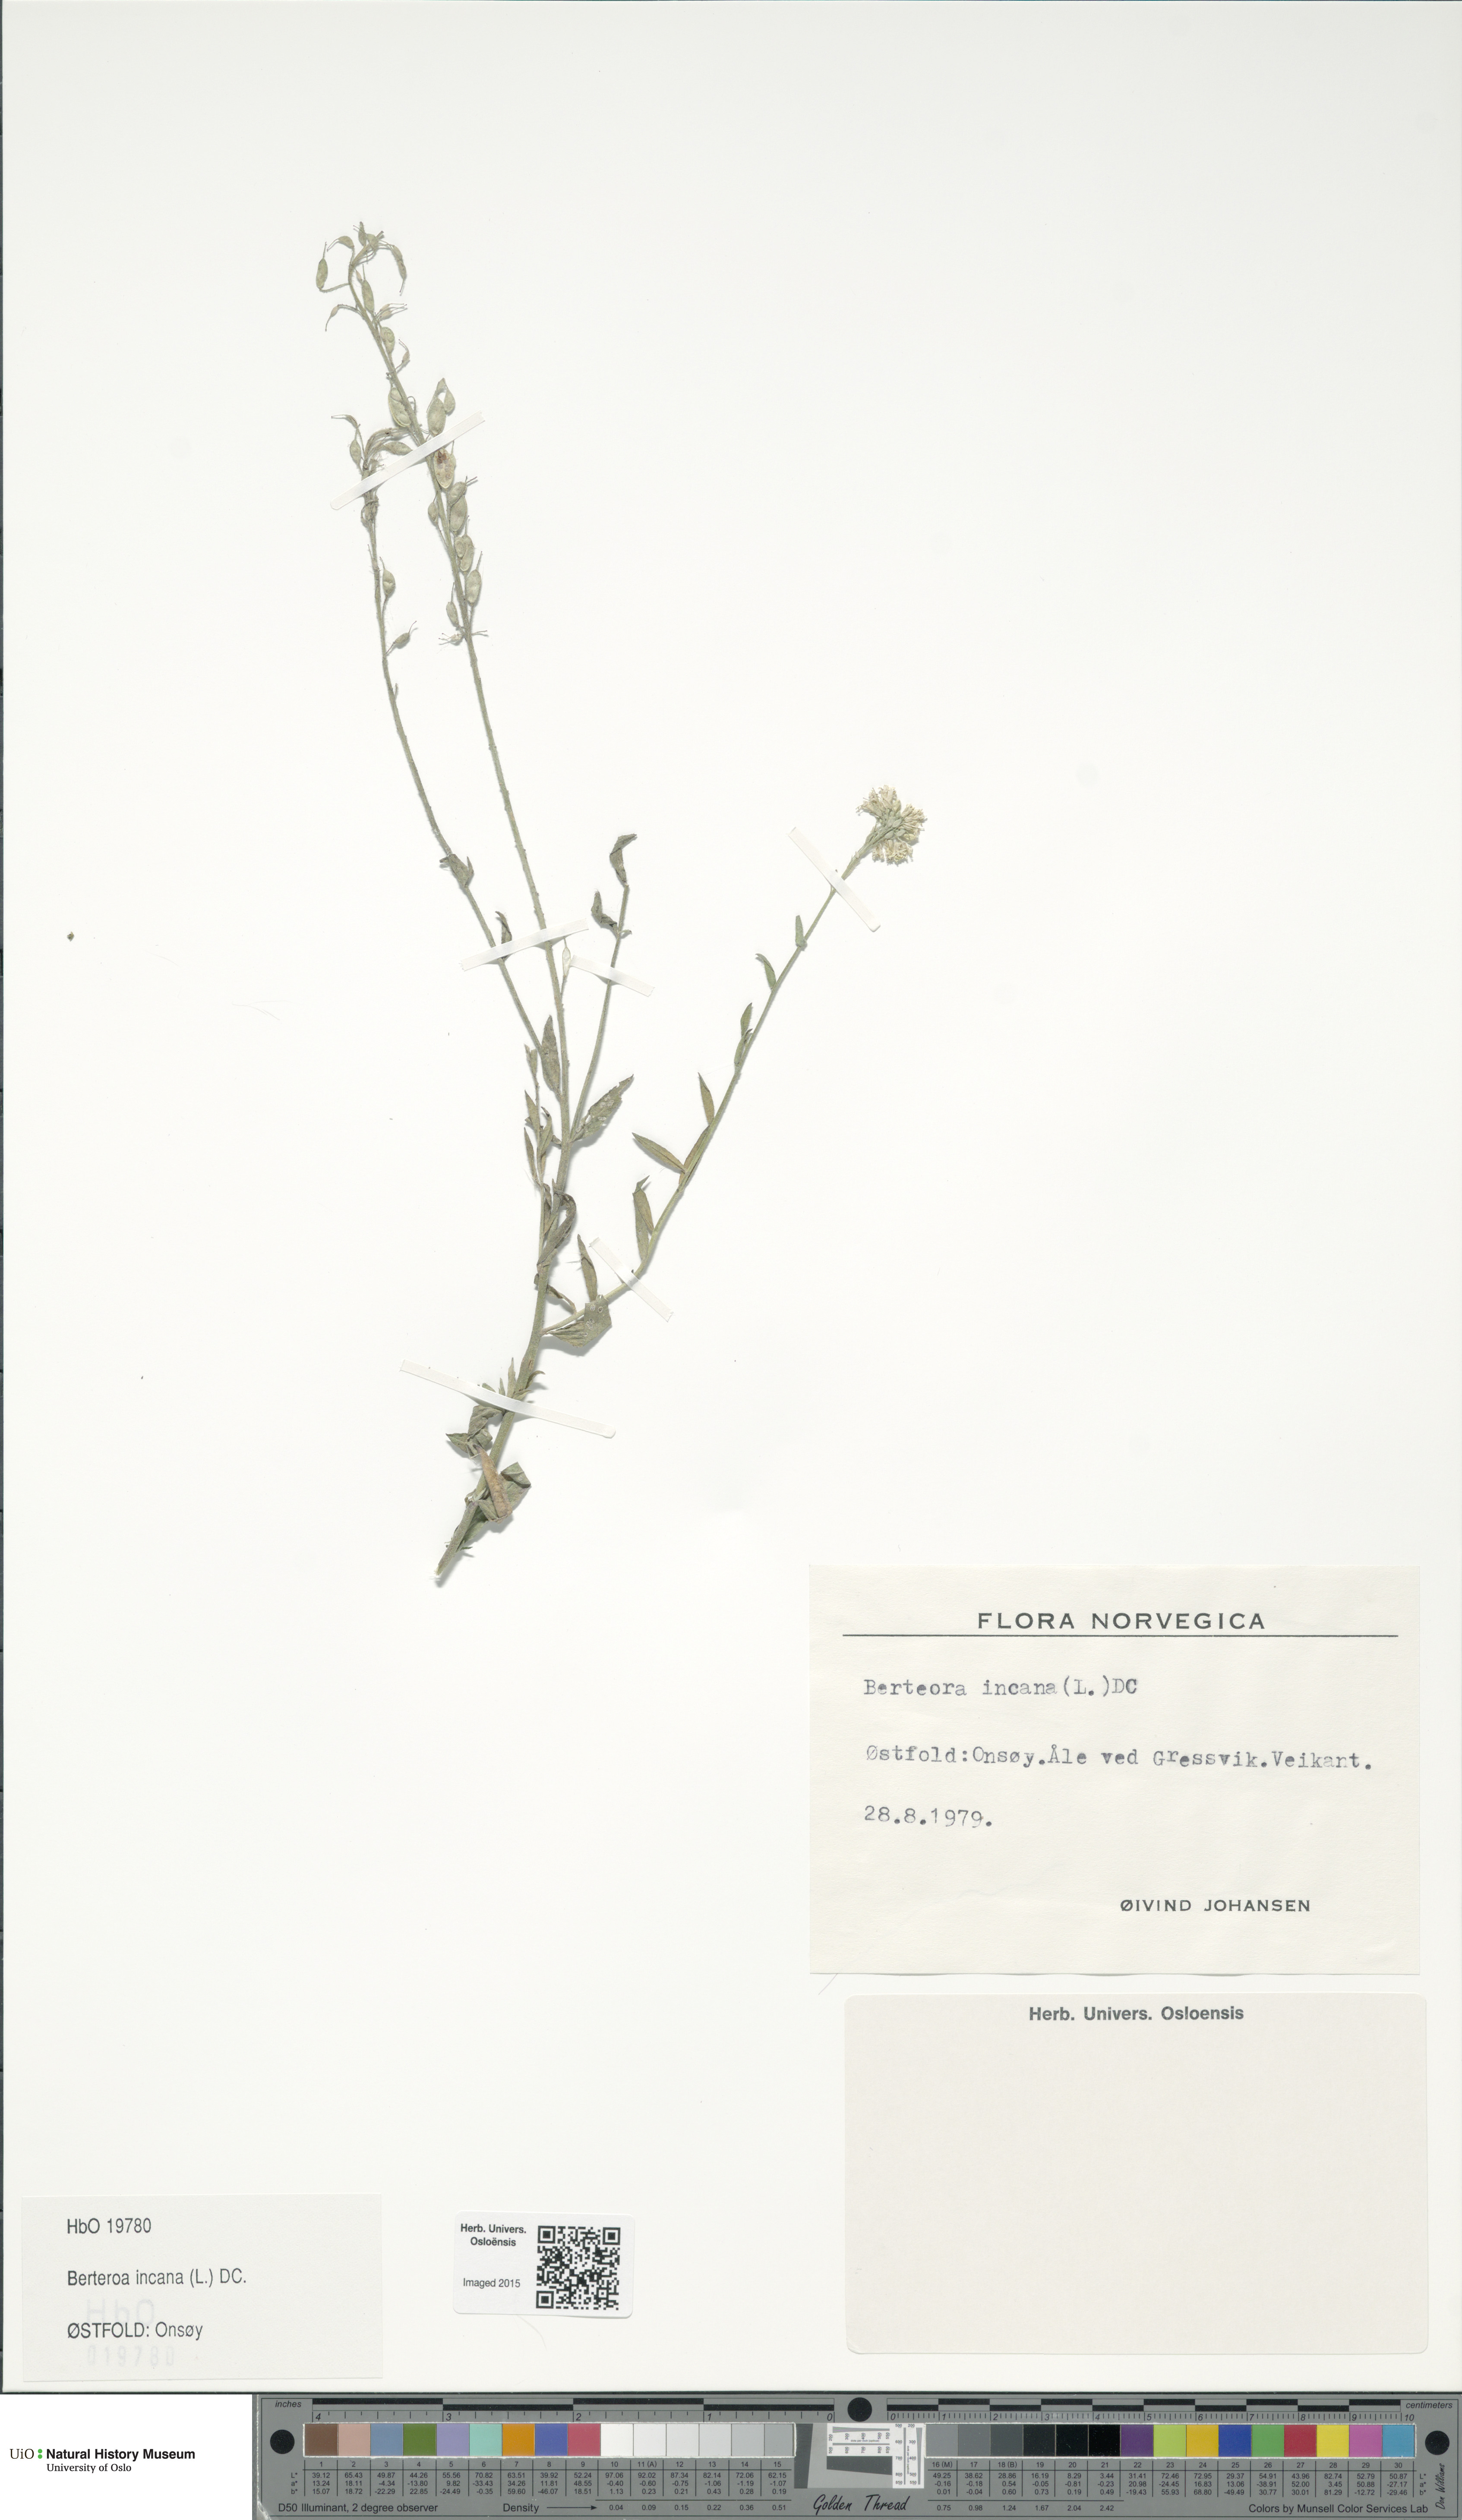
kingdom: Plantae
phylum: Tracheophyta
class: Magnoliopsida
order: Brassicales
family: Brassicaceae
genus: Berteroa
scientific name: Berteroa incana
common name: Hoary alison
